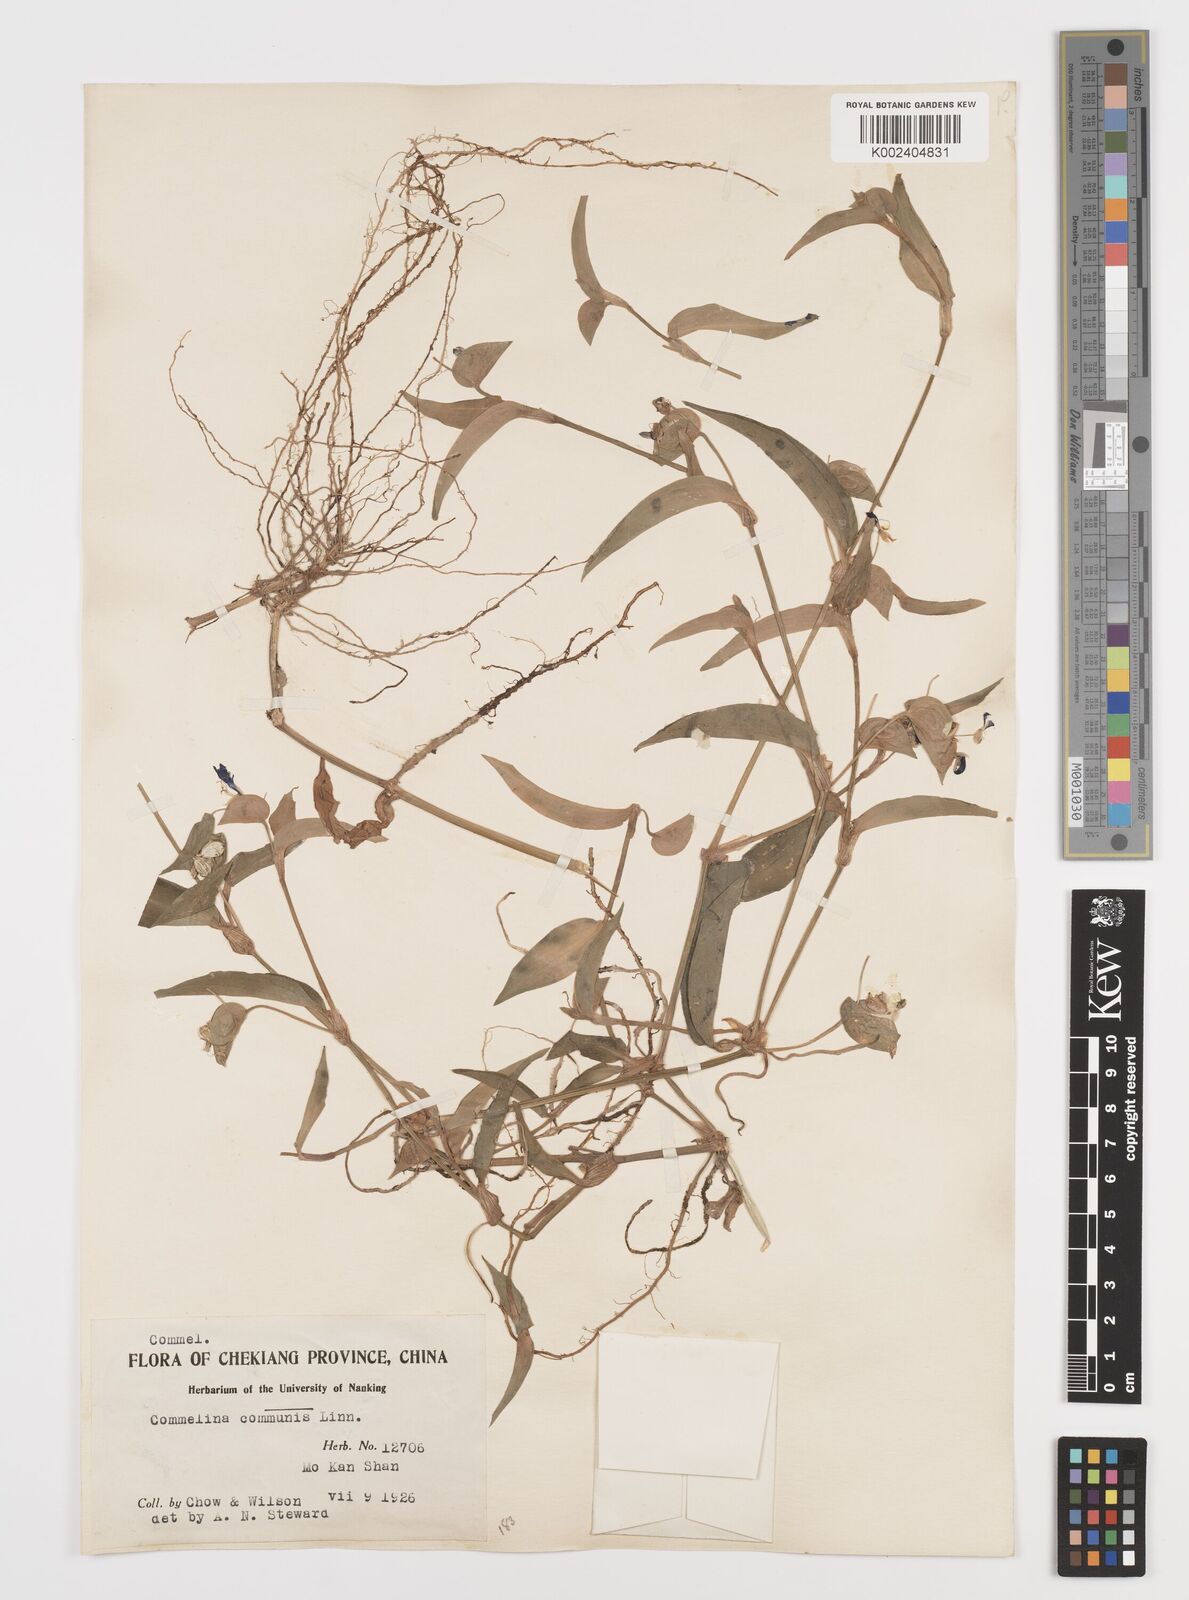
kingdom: Plantae
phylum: Tracheophyta
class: Liliopsida
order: Commelinales
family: Commelinaceae
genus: Commelina
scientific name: Commelina communis
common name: Asiatic dayflower
